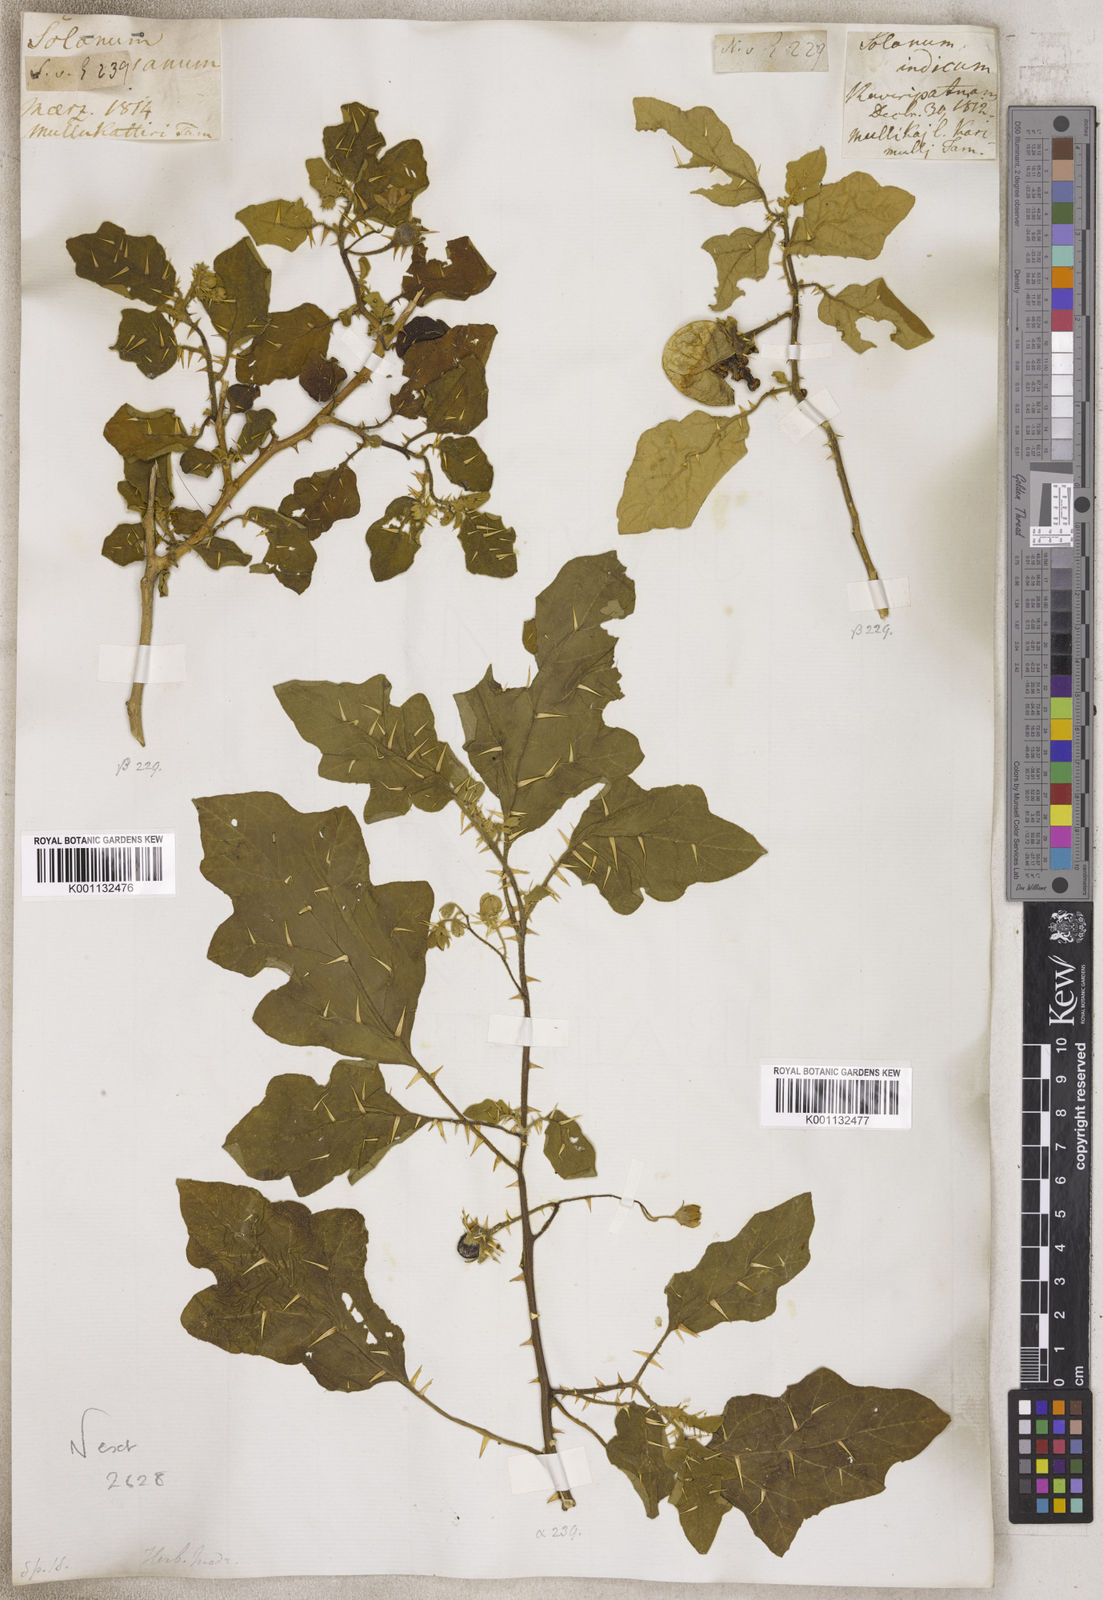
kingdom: Plantae
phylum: Tracheophyta
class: Magnoliopsida
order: Solanales
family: Solanaceae
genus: Solanum
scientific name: Solanum
